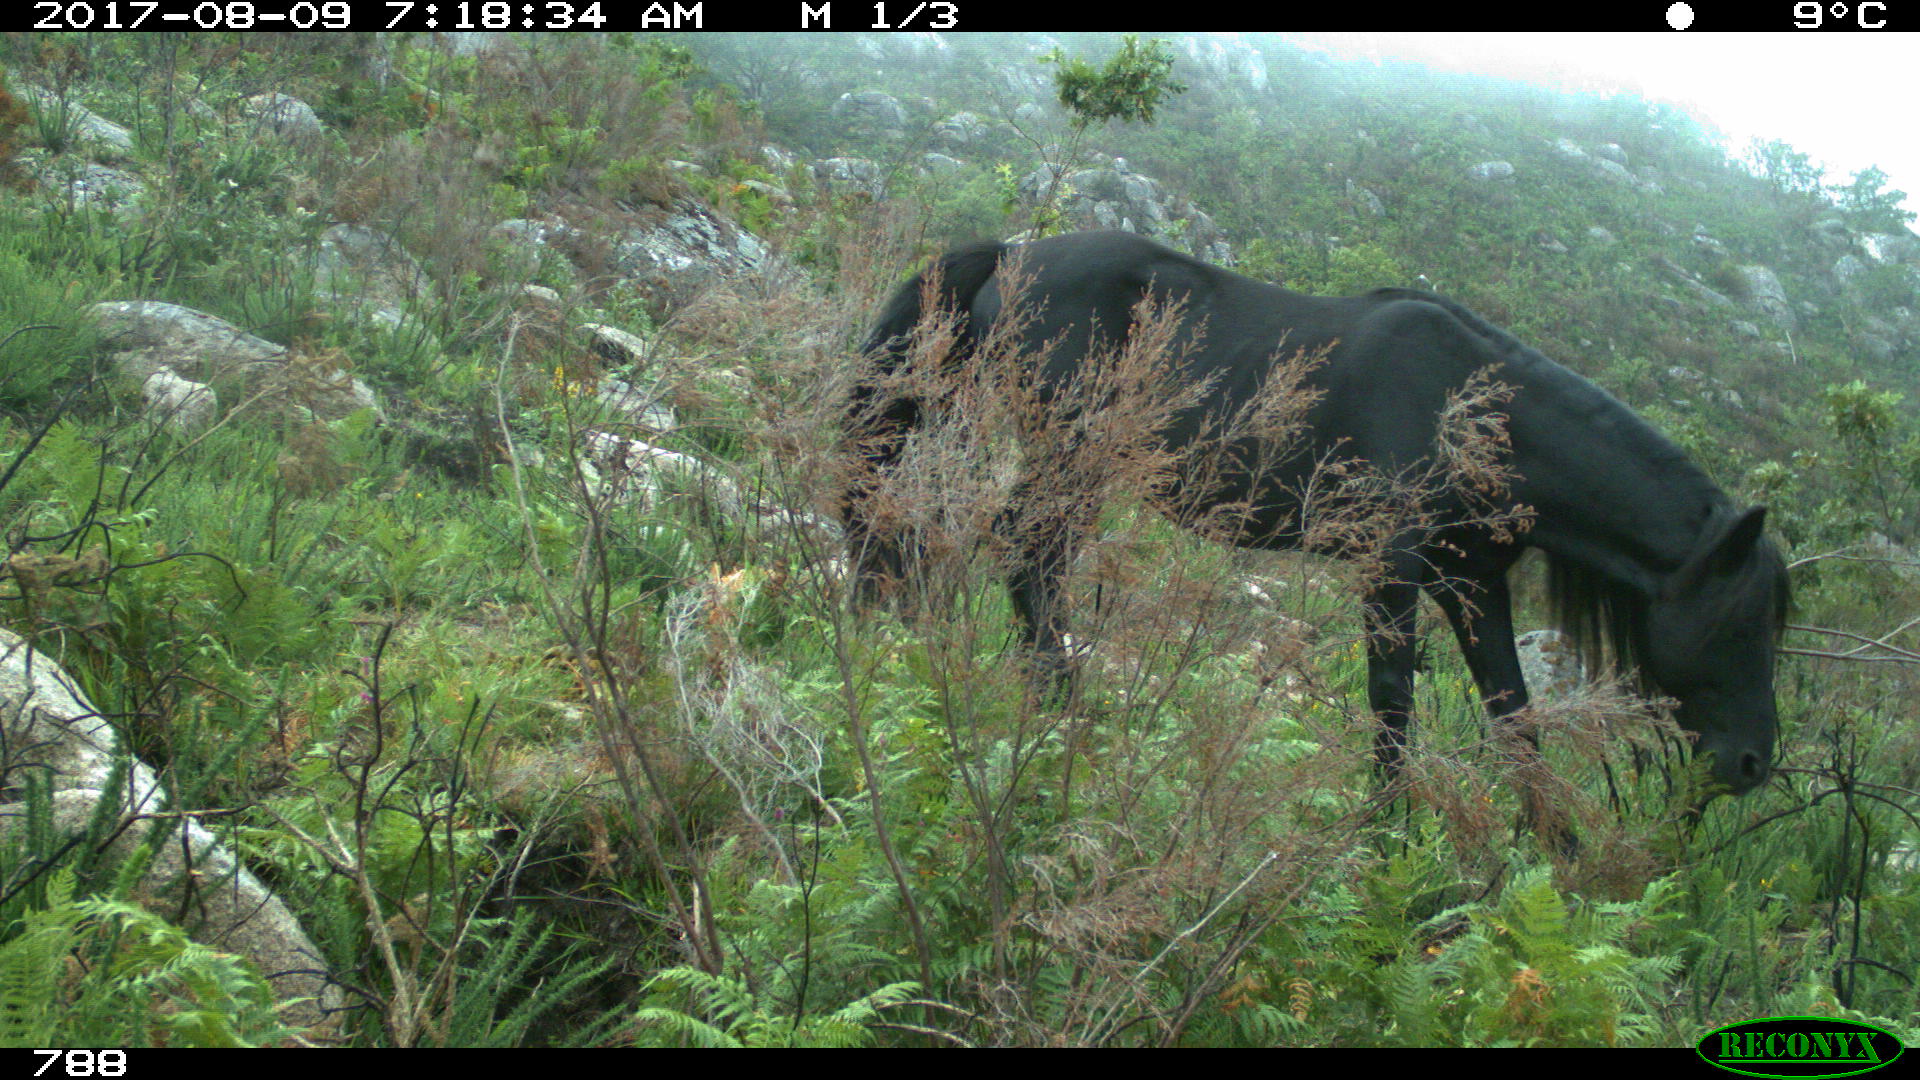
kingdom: Animalia
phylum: Chordata
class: Mammalia
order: Perissodactyla
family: Equidae
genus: Equus
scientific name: Equus caballus
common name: Horse
